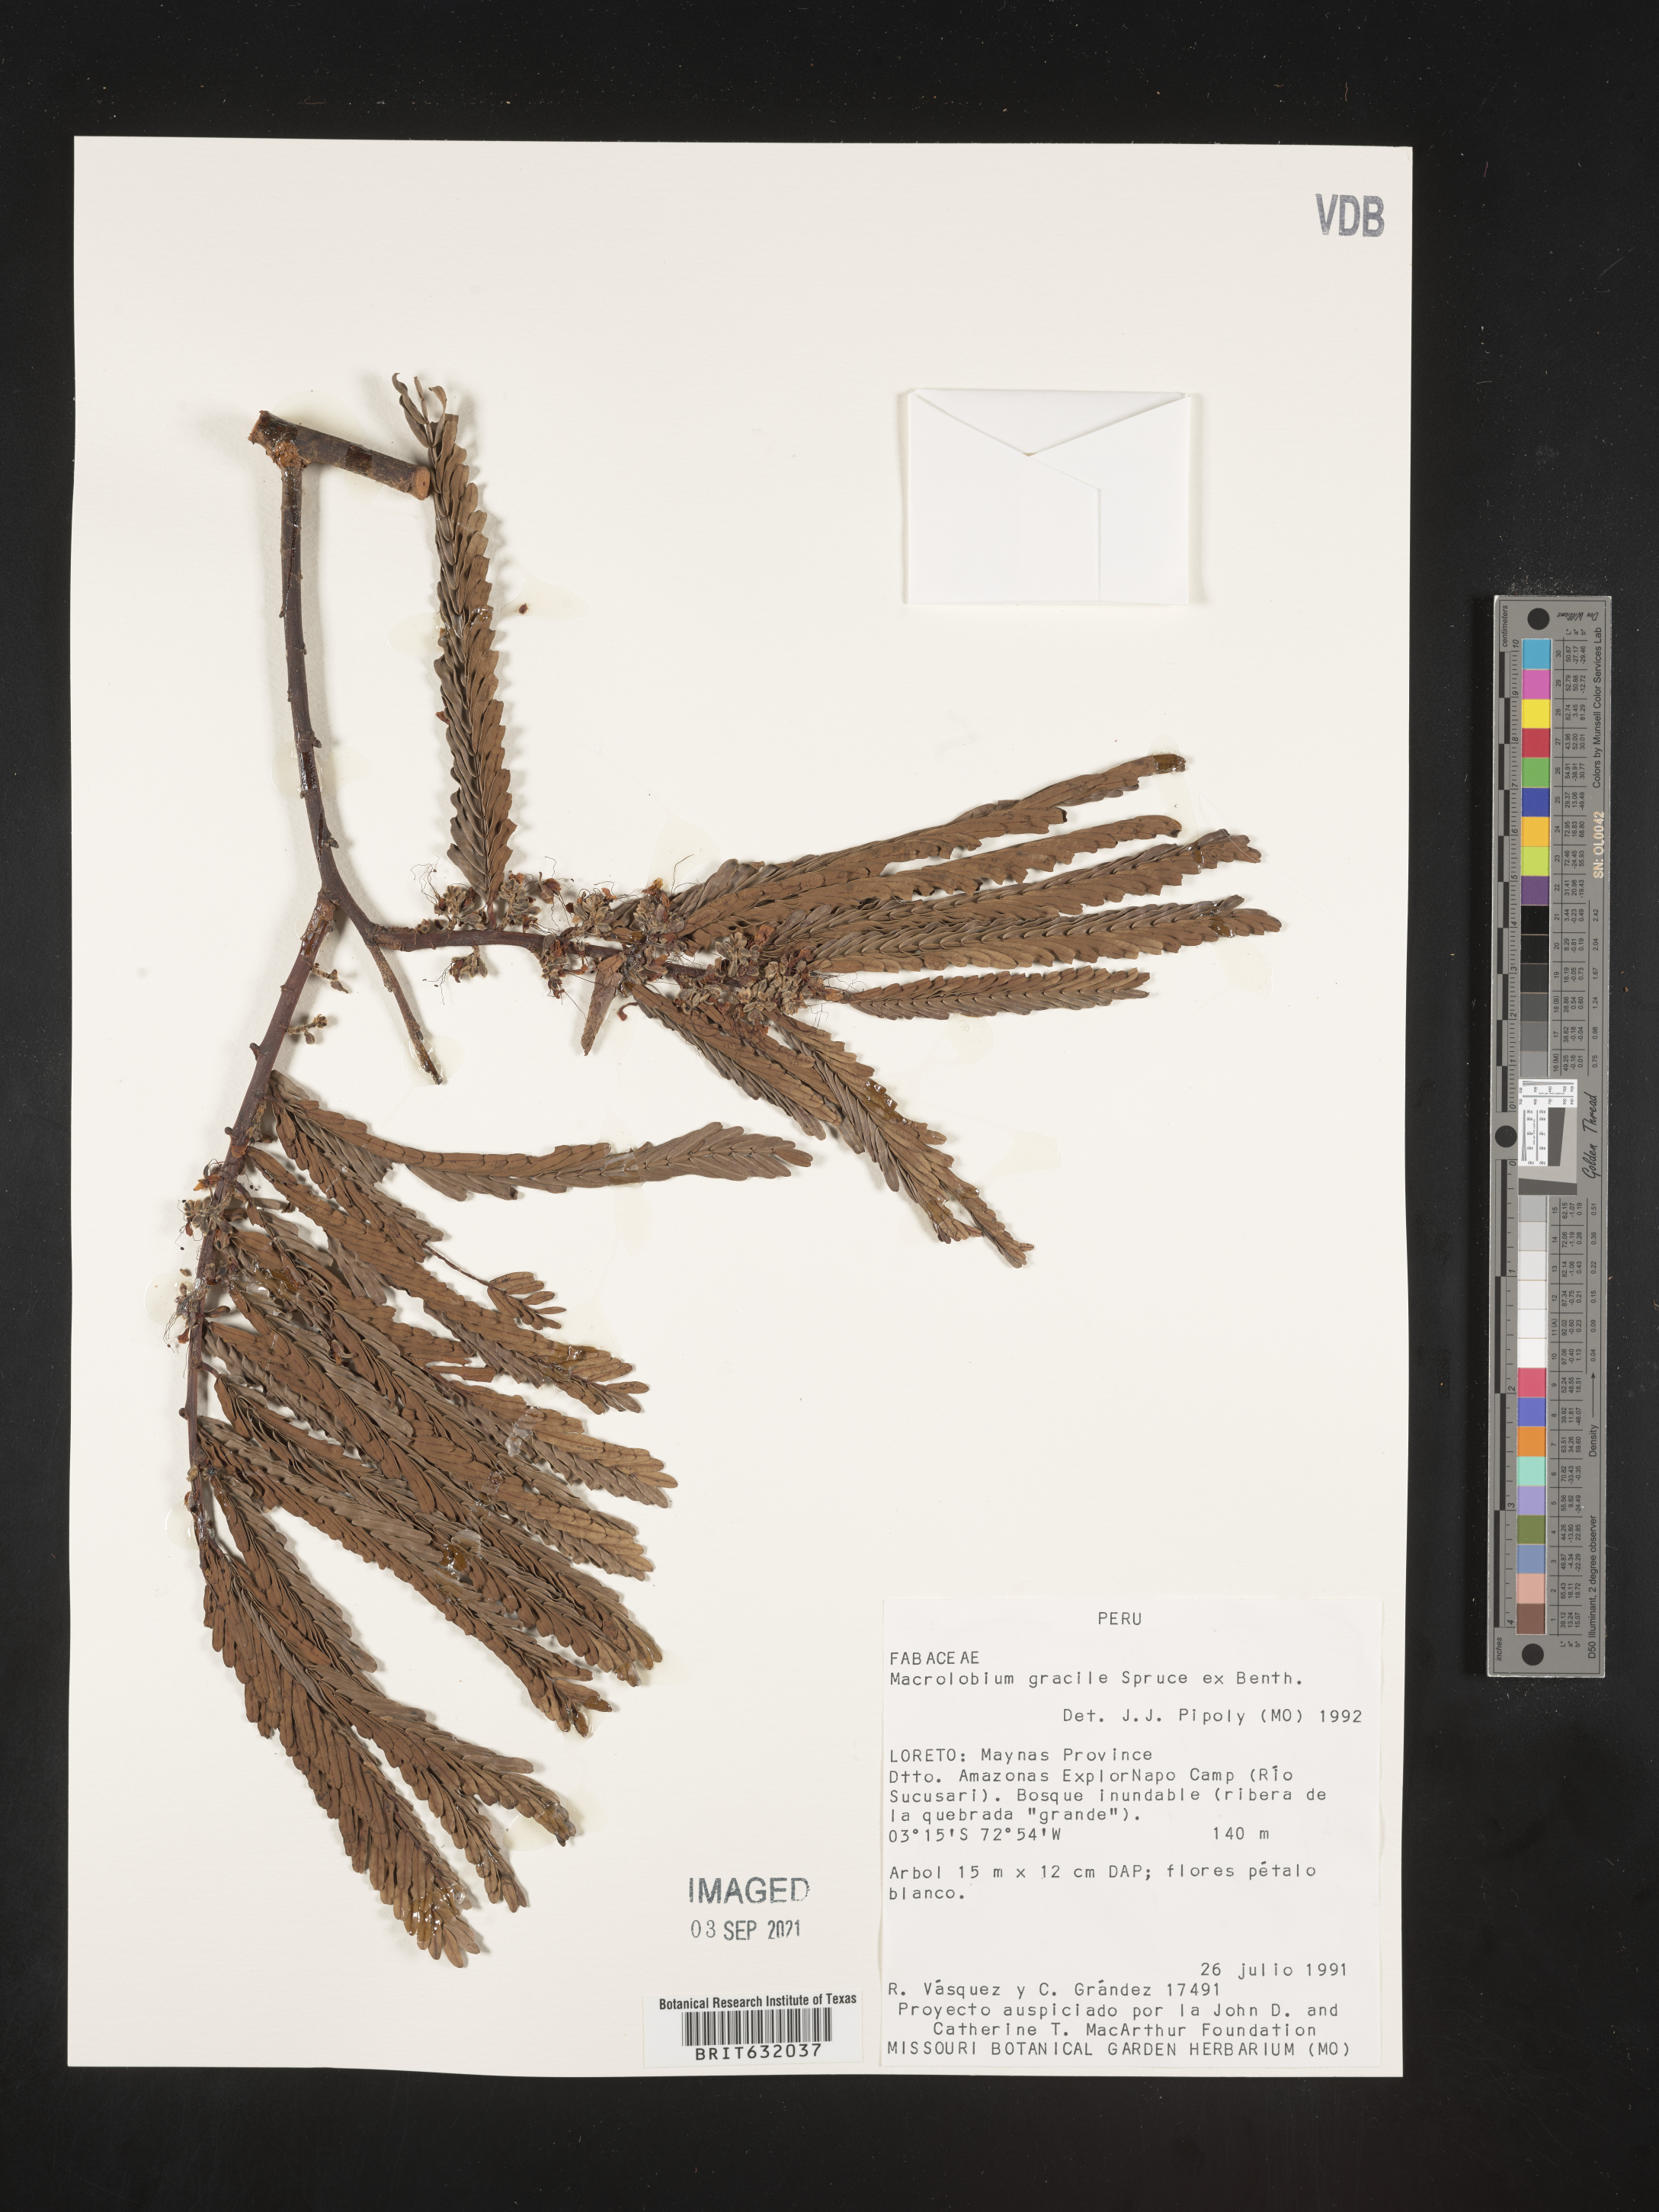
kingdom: Plantae
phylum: Tracheophyta
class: Magnoliopsida
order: Fabales
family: Fabaceae
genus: Macrolobium
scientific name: Macrolobium
